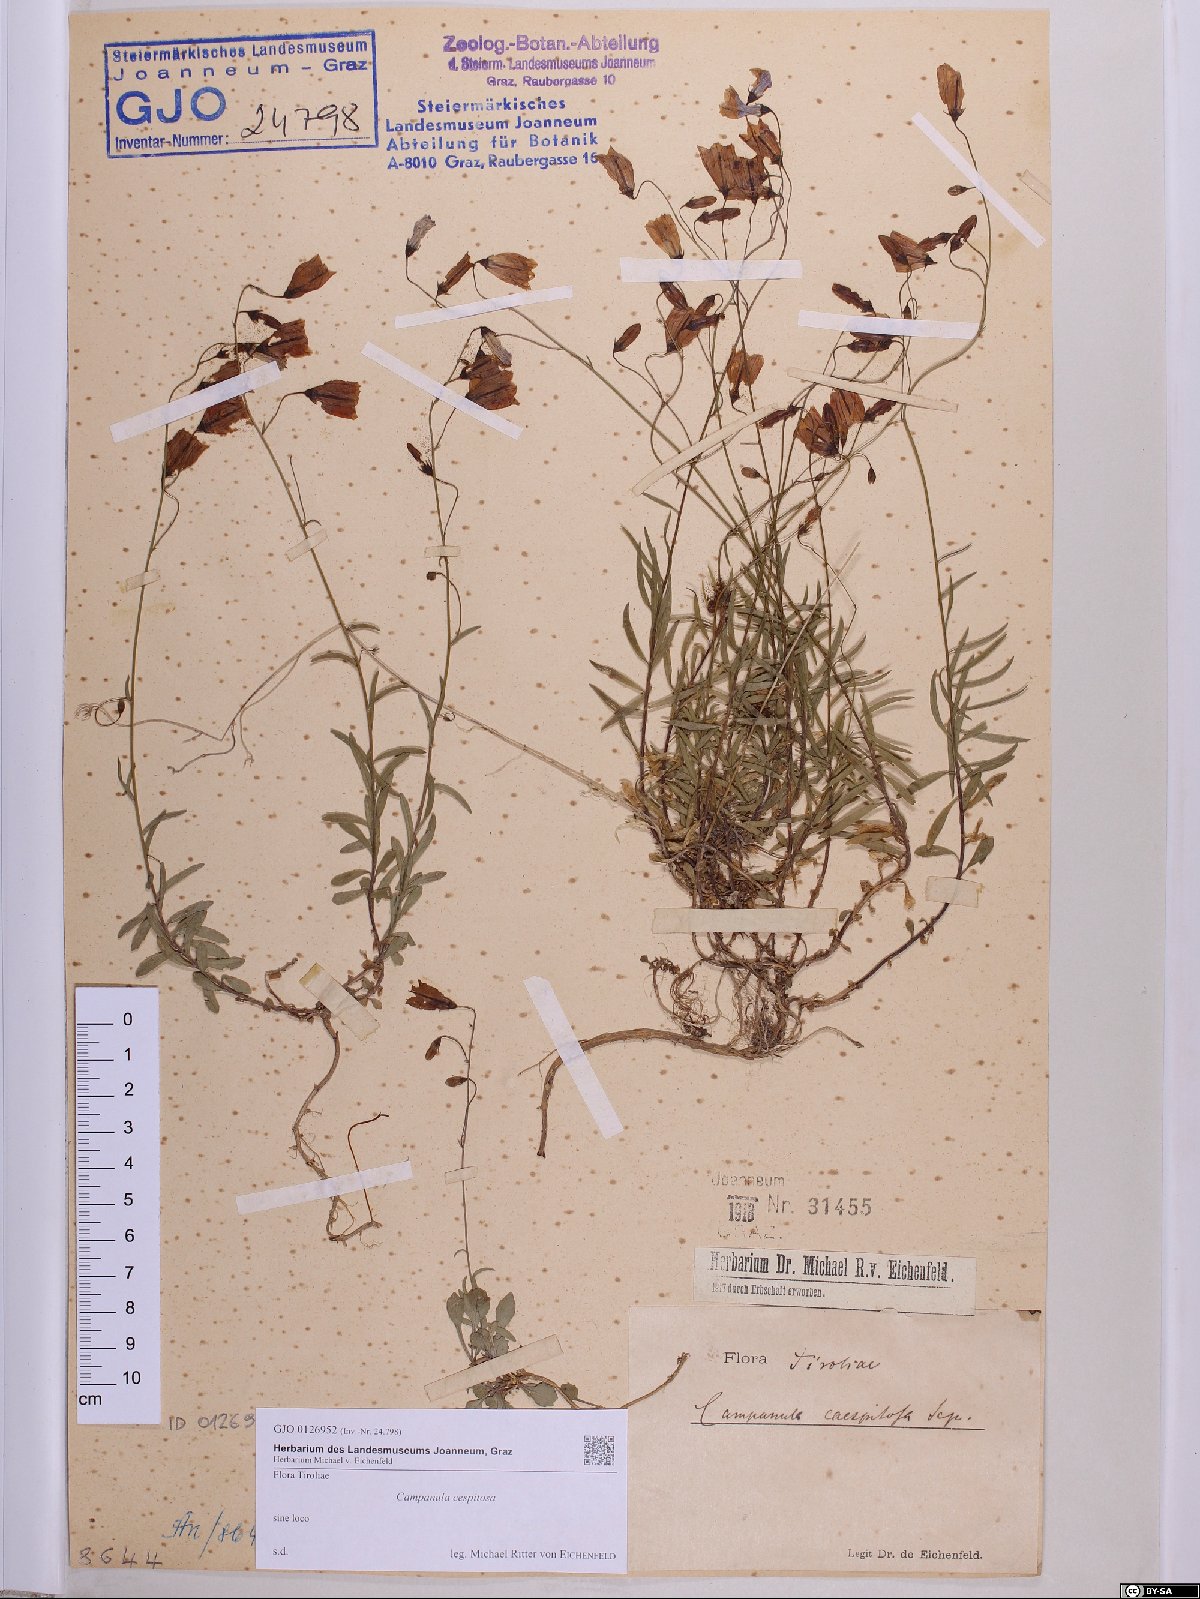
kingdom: Plantae
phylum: Tracheophyta
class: Magnoliopsida
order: Asterales
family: Campanulaceae
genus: Campanula
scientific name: Campanula cespitosa
